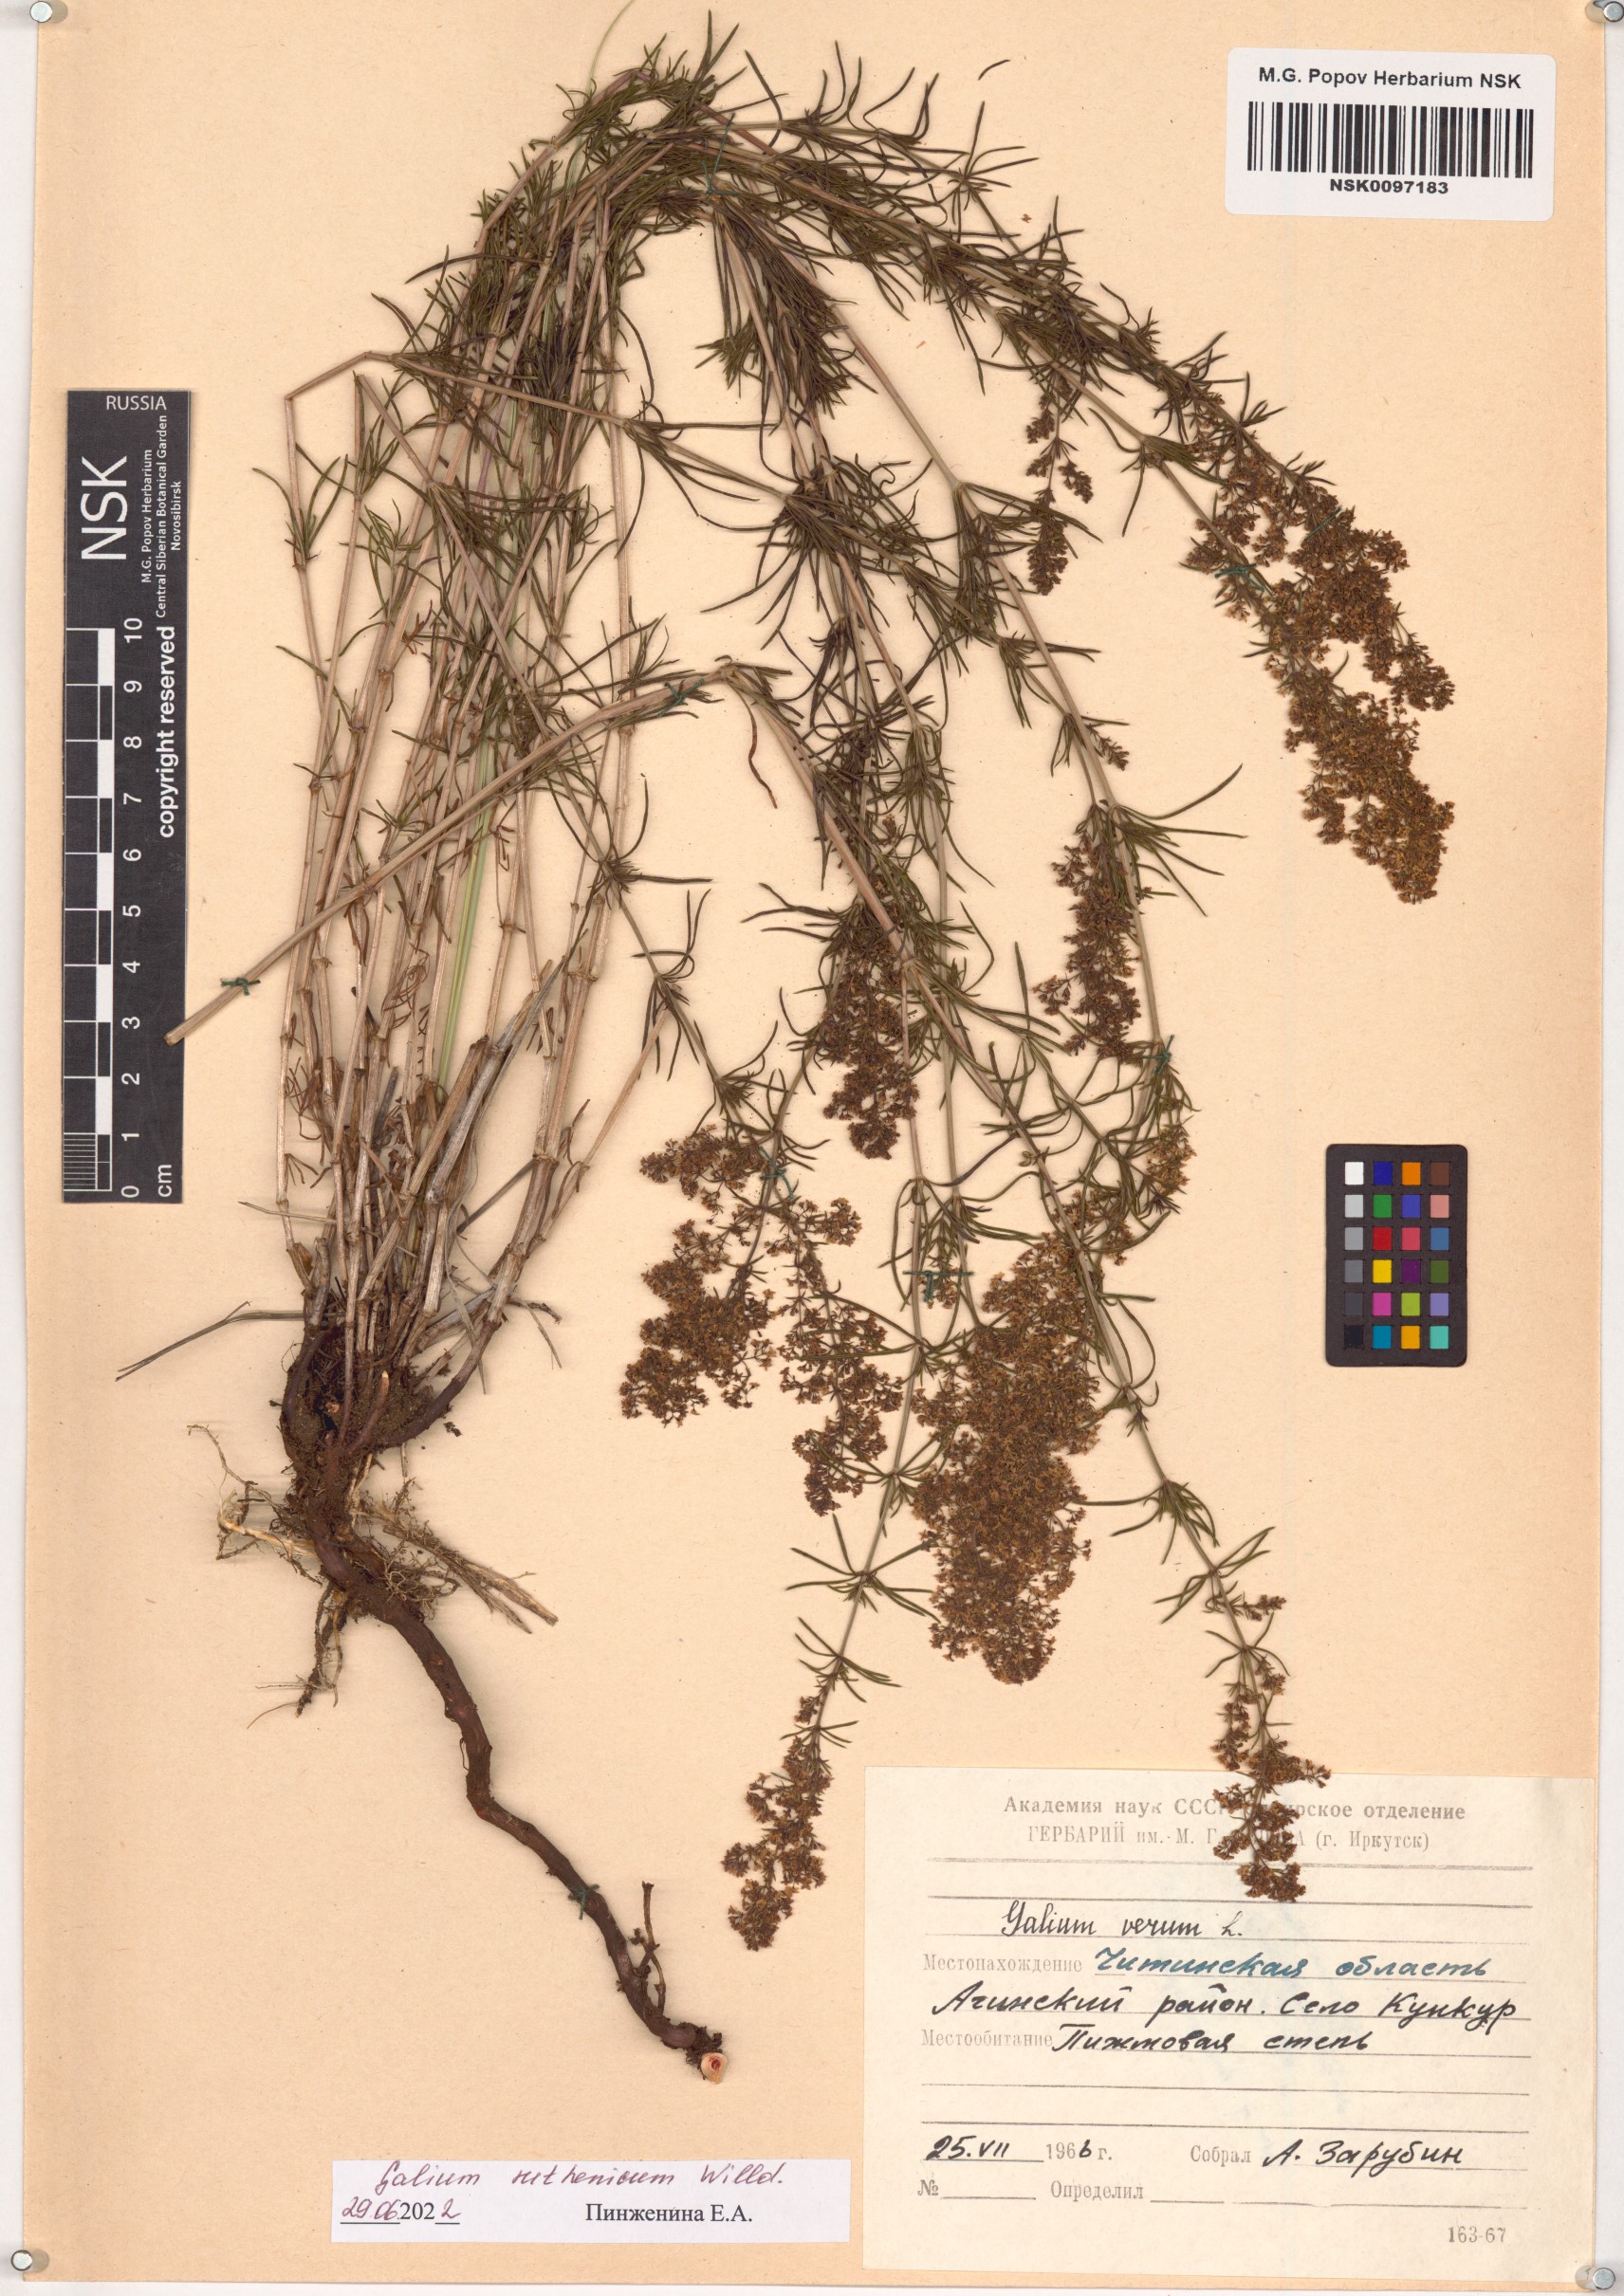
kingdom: Plantae
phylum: Tracheophyta
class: Magnoliopsida
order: Gentianales
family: Rubiaceae
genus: Galium
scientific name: Galium verum
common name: Lady's bedstraw
